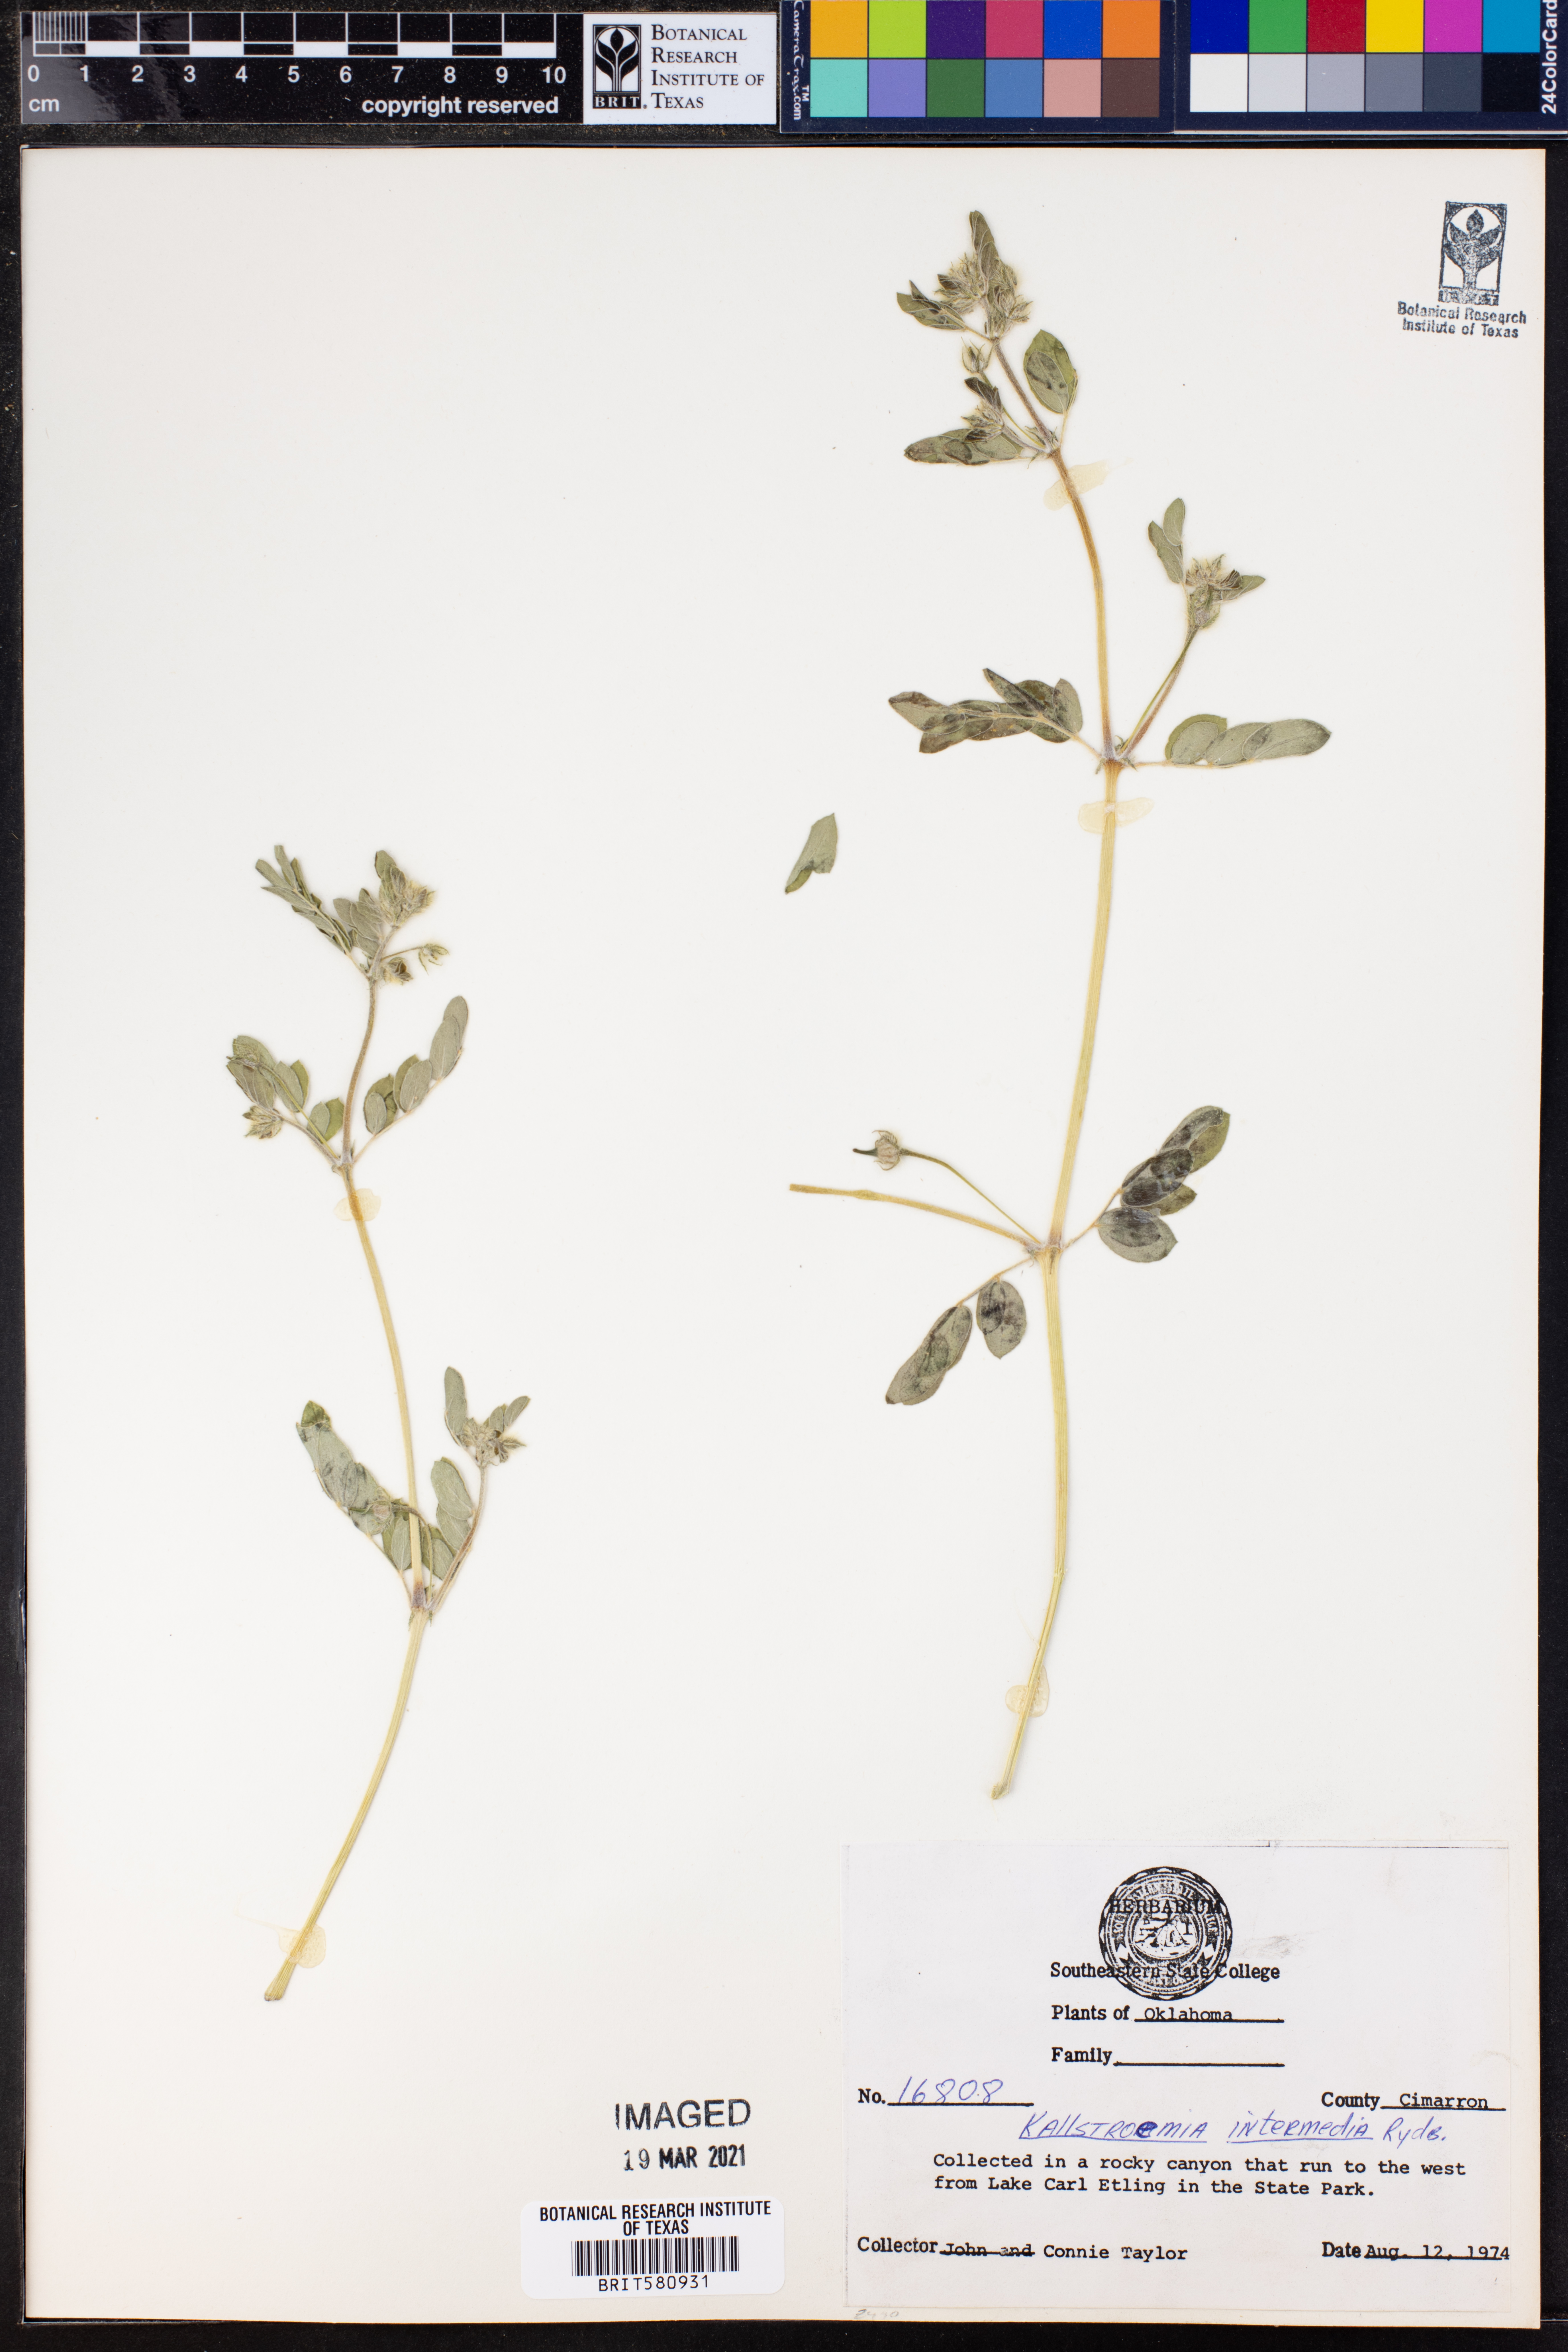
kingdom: Plantae
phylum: Tracheophyta
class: Magnoliopsida
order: Zygophyllales
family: Zygophyllaceae
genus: Kallstroemia
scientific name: Kallstroemia parviflora
